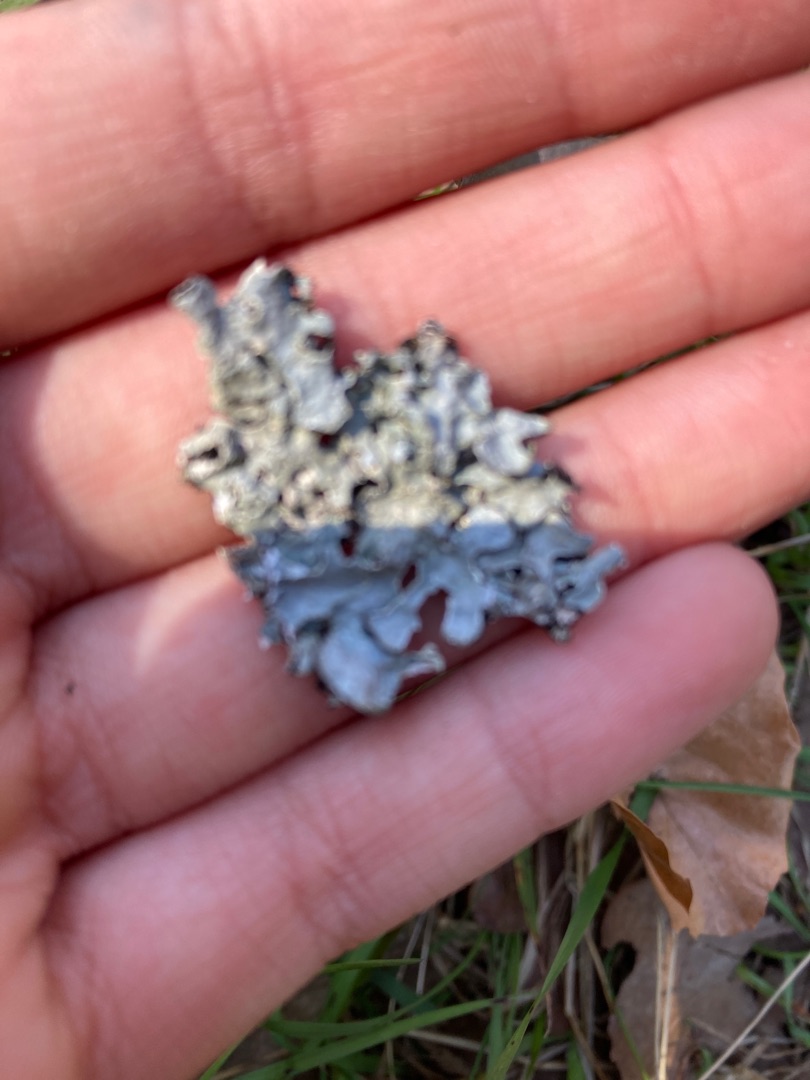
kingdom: Fungi
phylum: Ascomycota
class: Lecanoromycetes
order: Lecanorales
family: Parmeliaceae
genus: Parmelia
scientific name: Parmelia sulcata
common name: Rynket skållav
